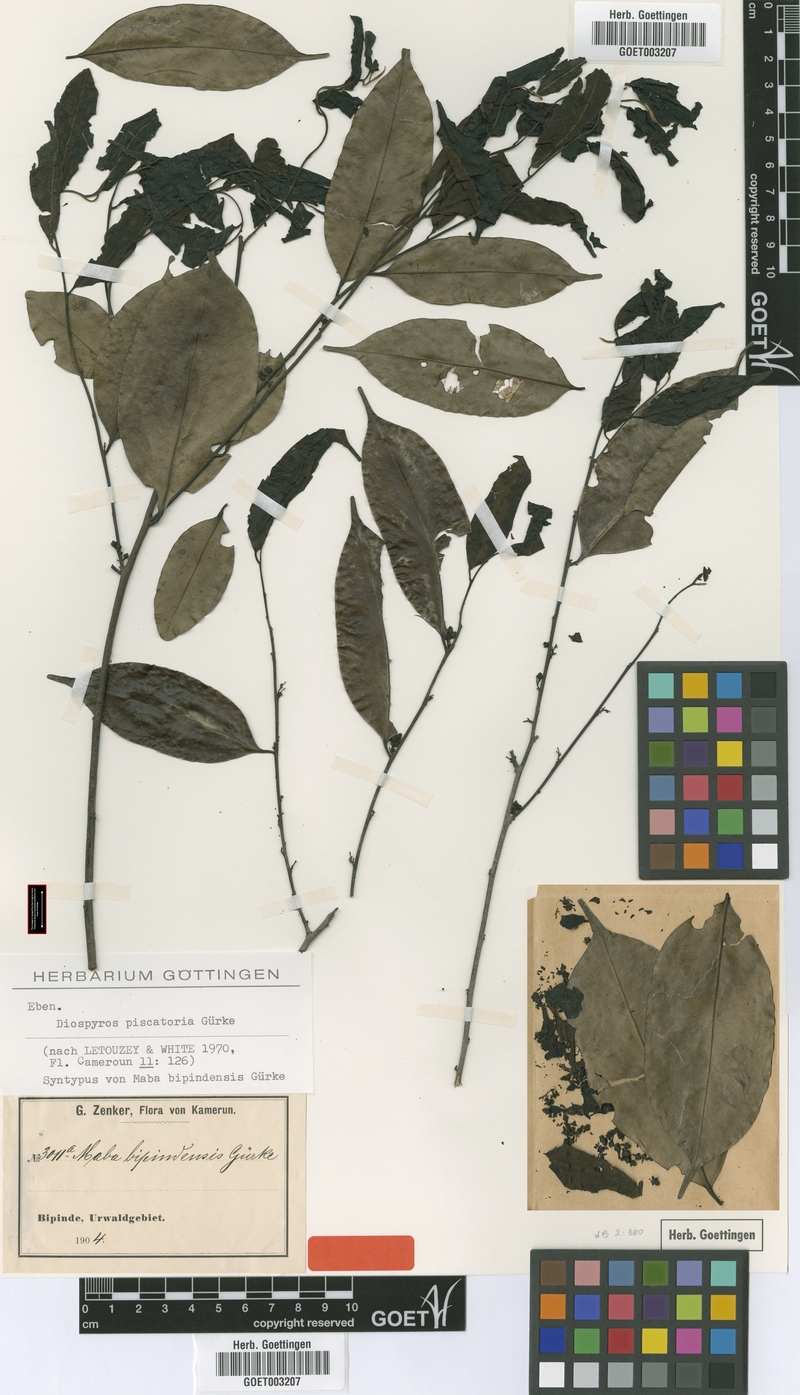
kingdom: Plantae
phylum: Tracheophyta
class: Magnoliopsida
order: Ericales
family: Ebenaceae
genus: Diospyros
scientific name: Diospyros piscatoria
